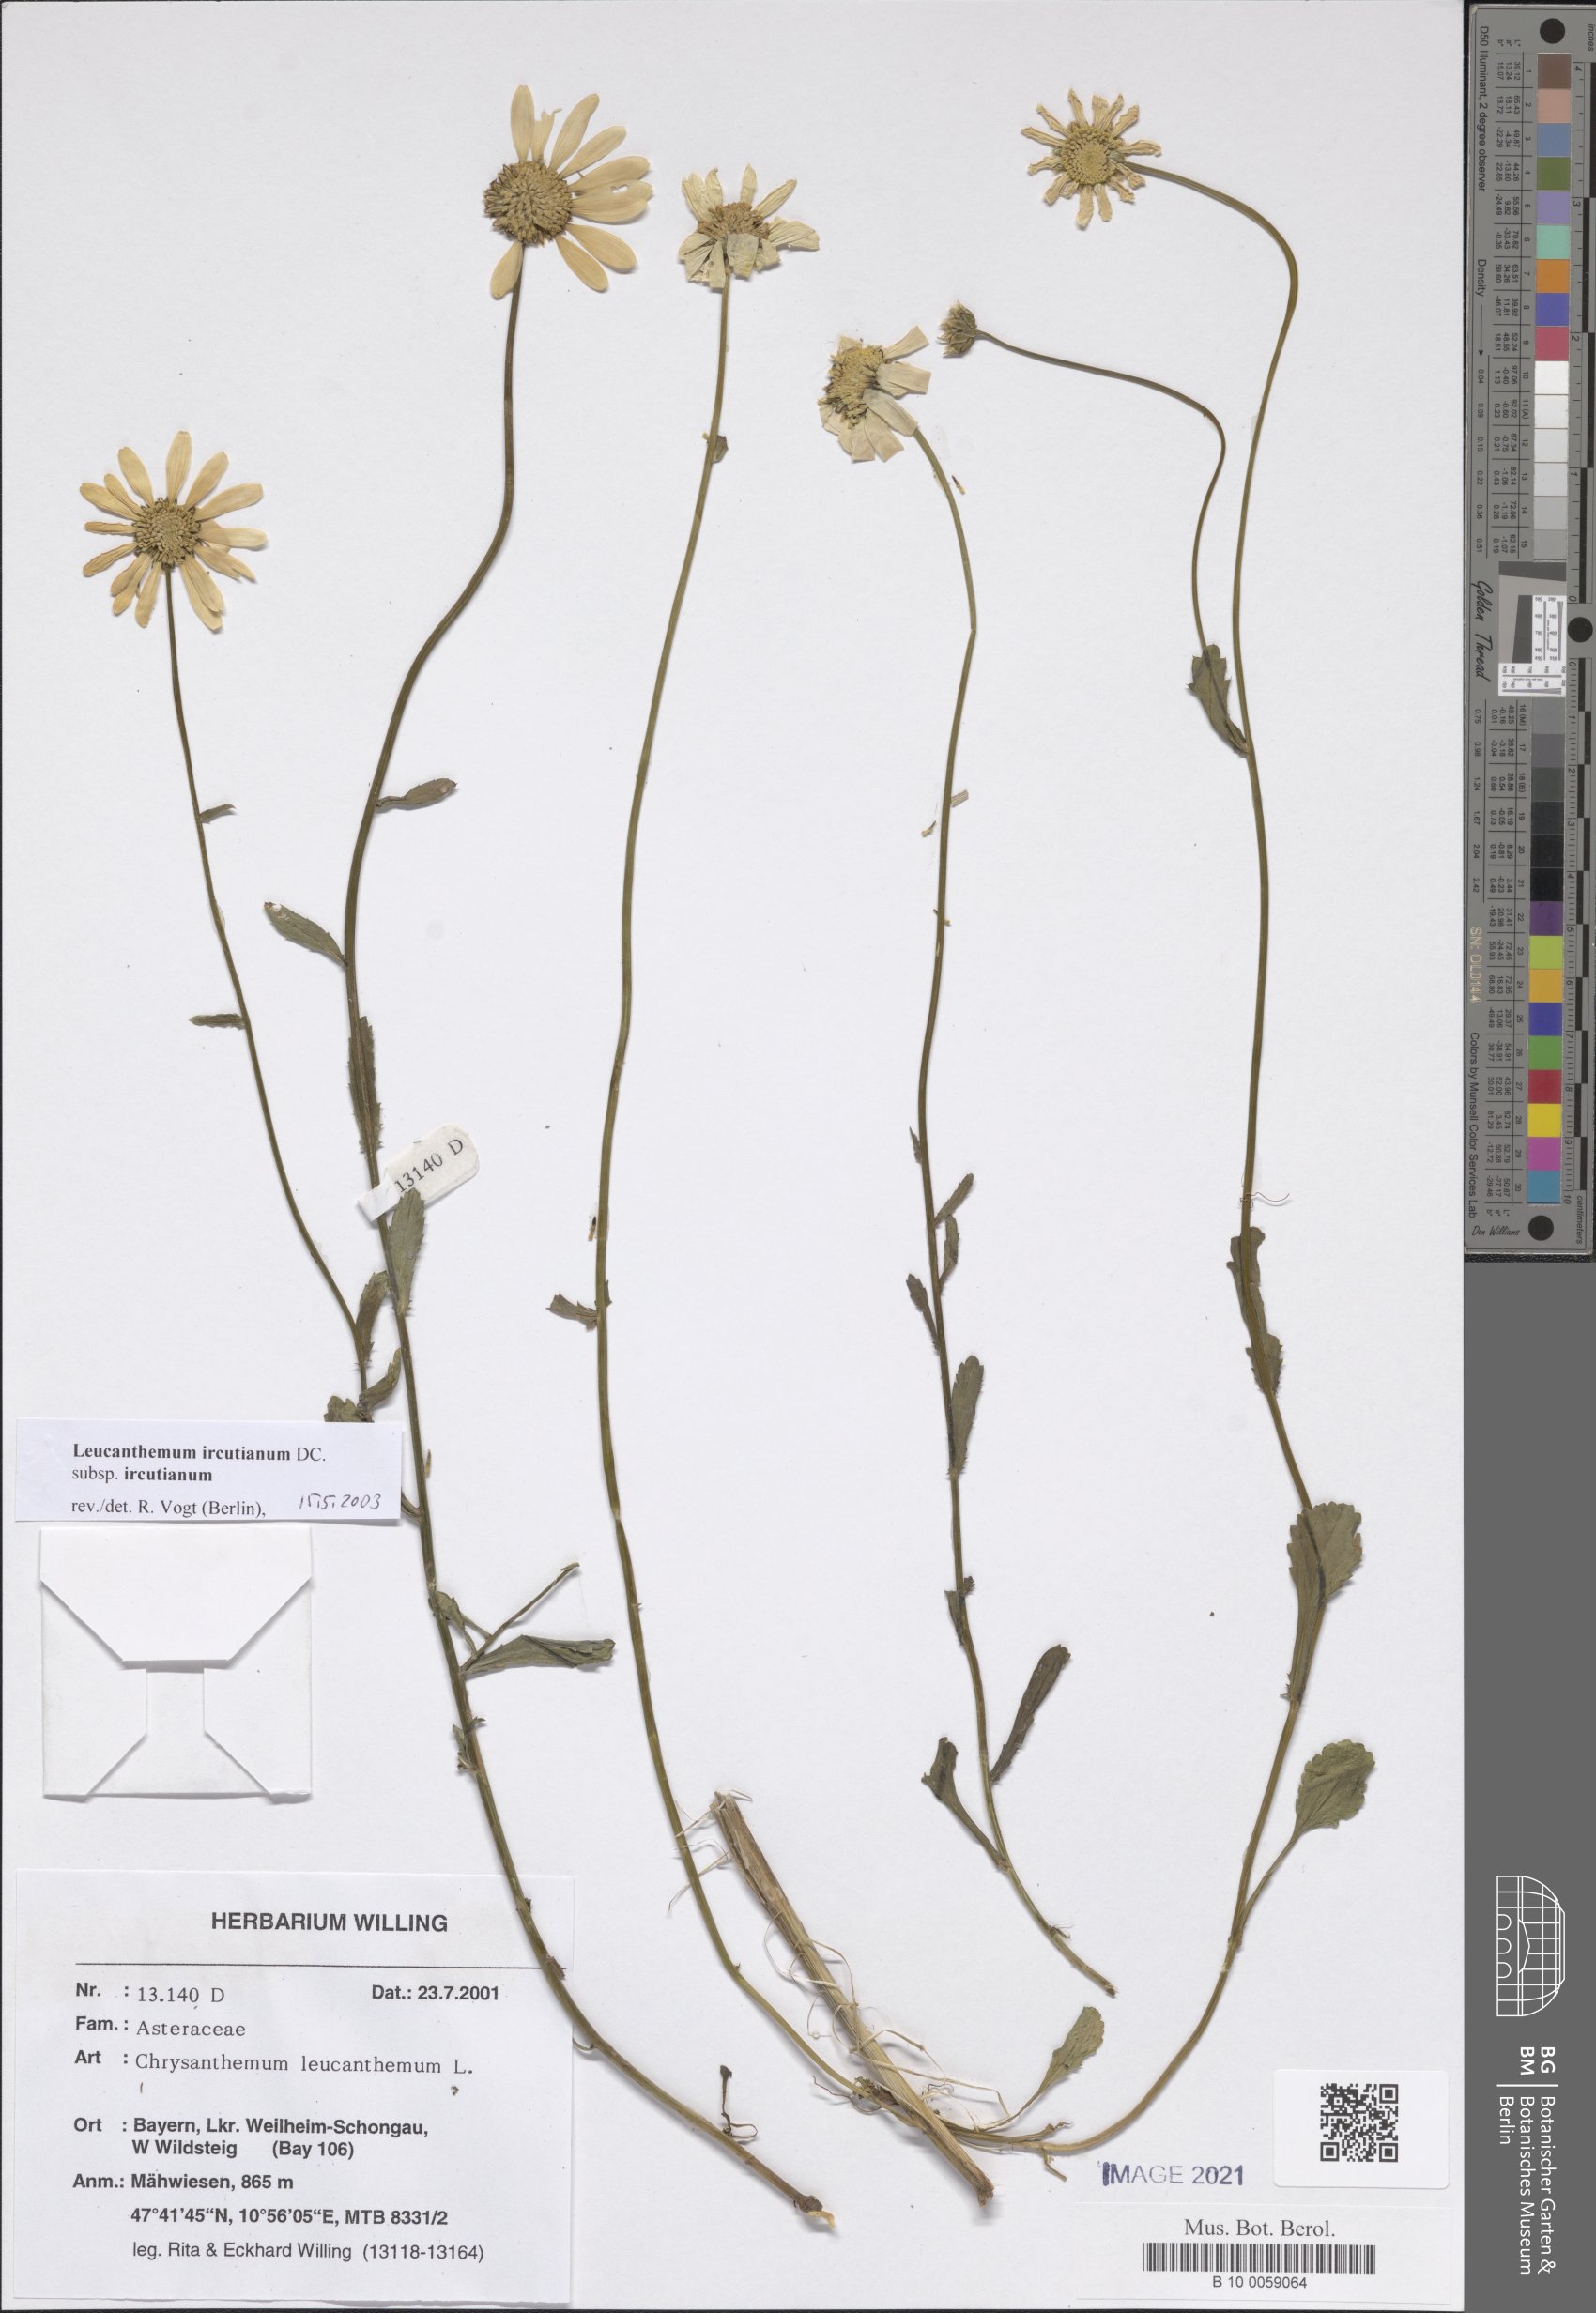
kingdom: Plantae
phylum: Tracheophyta
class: Magnoliopsida
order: Asterales
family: Asteraceae
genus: Leucanthemum
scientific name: Leucanthemum ircutianum
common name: Daisy
